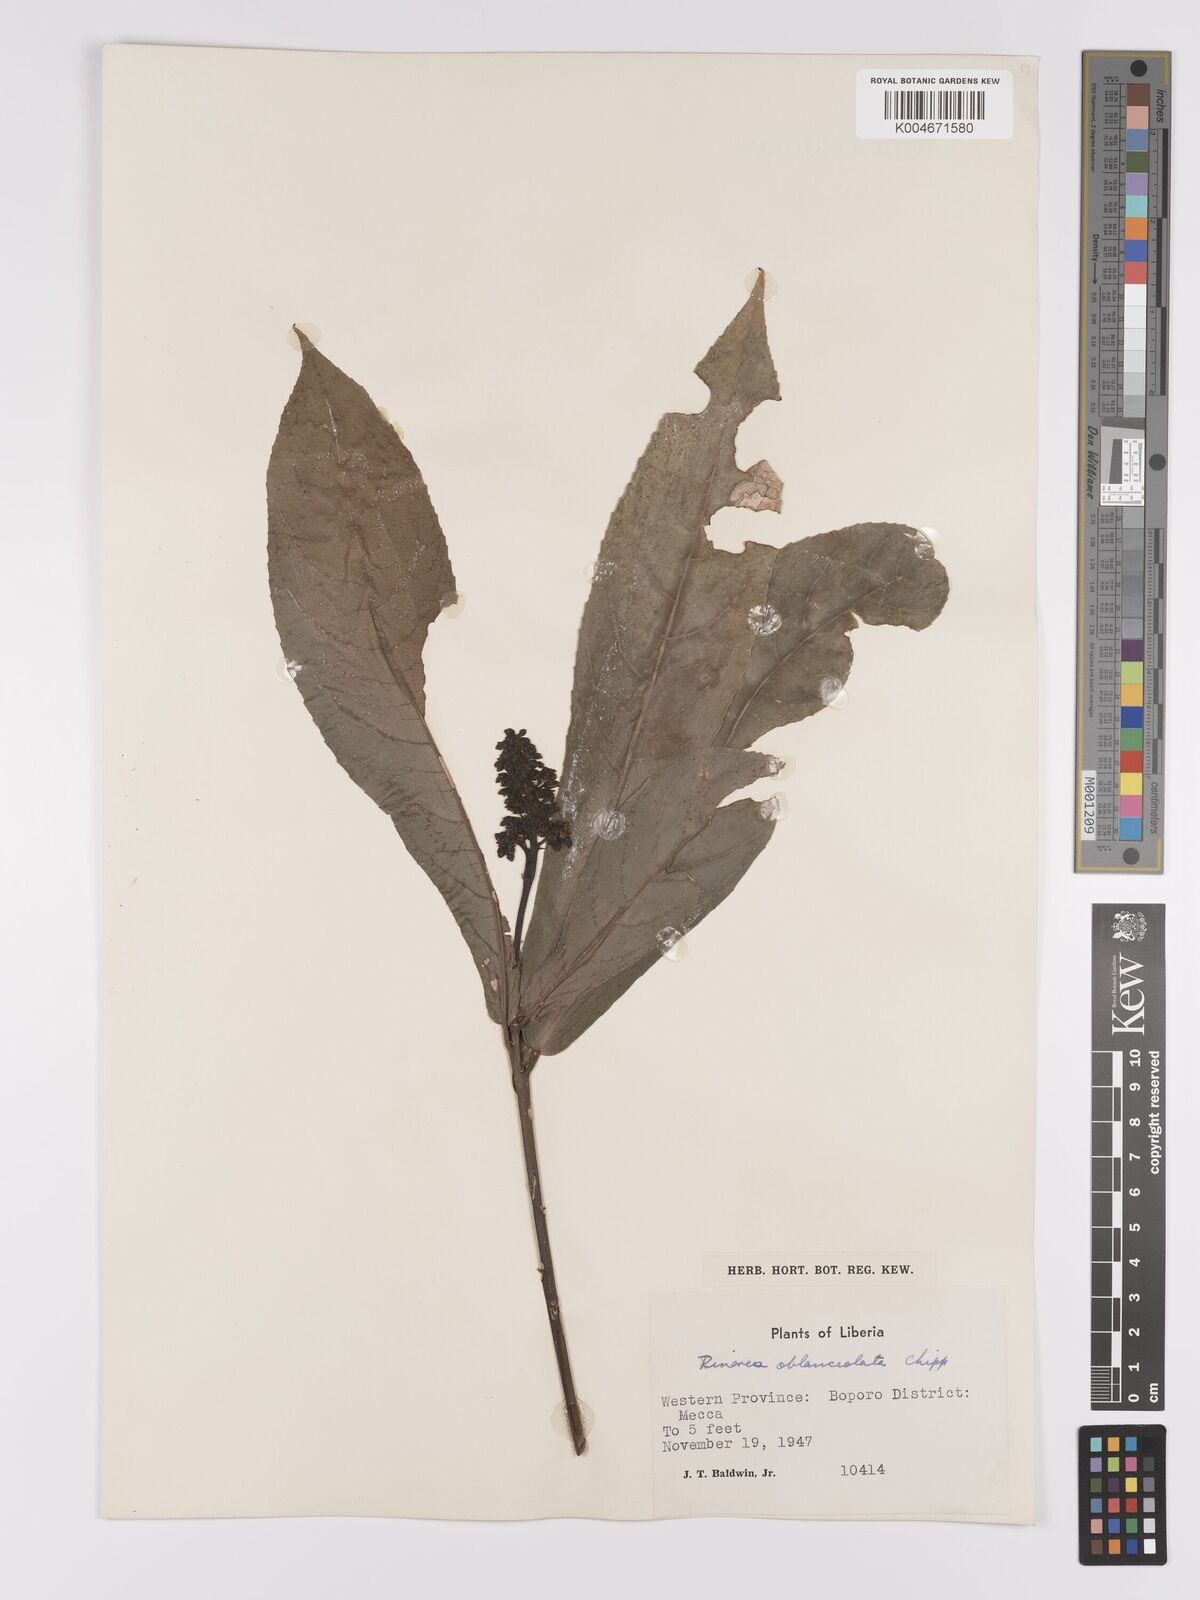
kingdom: Plantae
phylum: Tracheophyta
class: Magnoliopsida
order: Malpighiales
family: Violaceae
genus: Rinorea
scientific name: Rinorea oblanceolata
